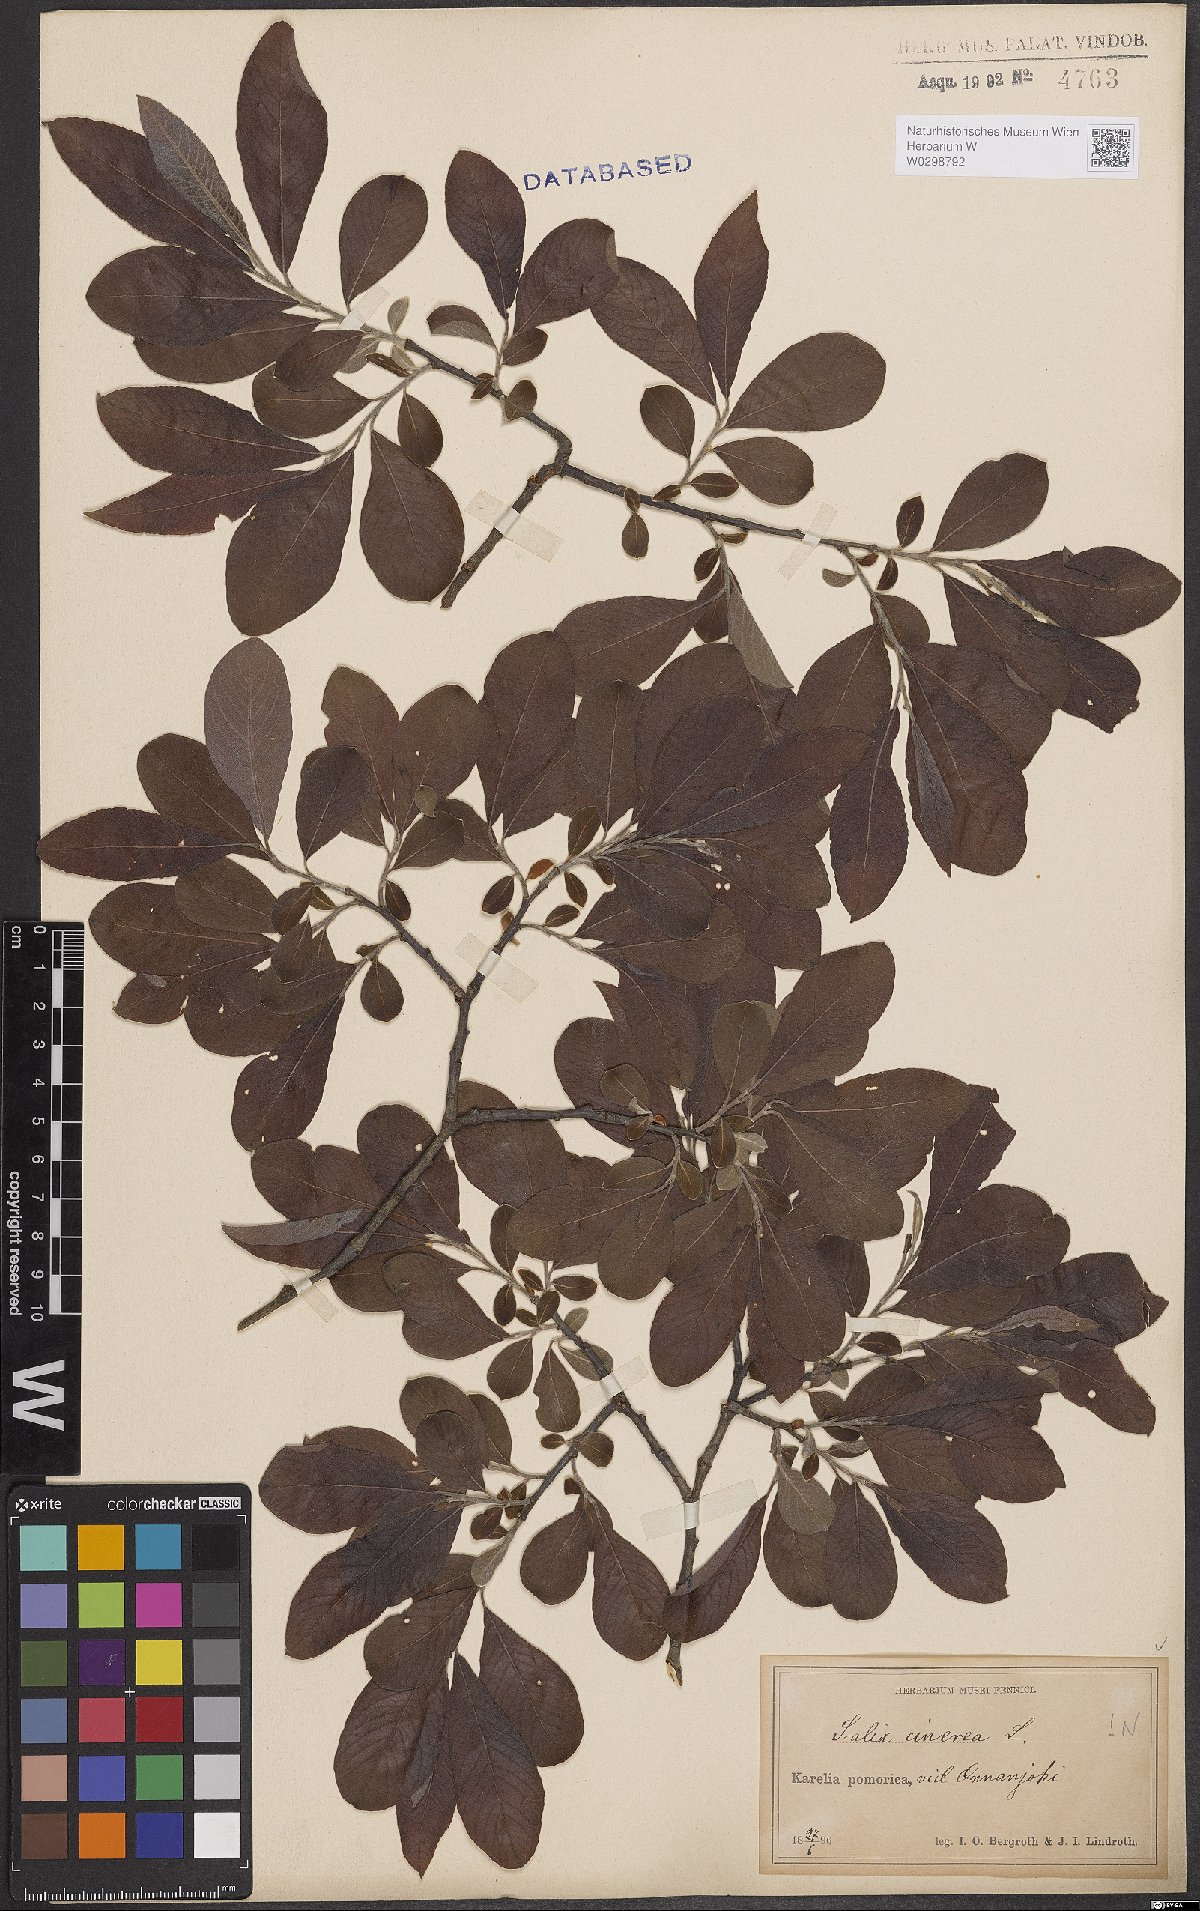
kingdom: Plantae
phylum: Tracheophyta
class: Magnoliopsida
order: Malpighiales
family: Salicaceae
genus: Salix
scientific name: Salix cinerea
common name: Common sallow
